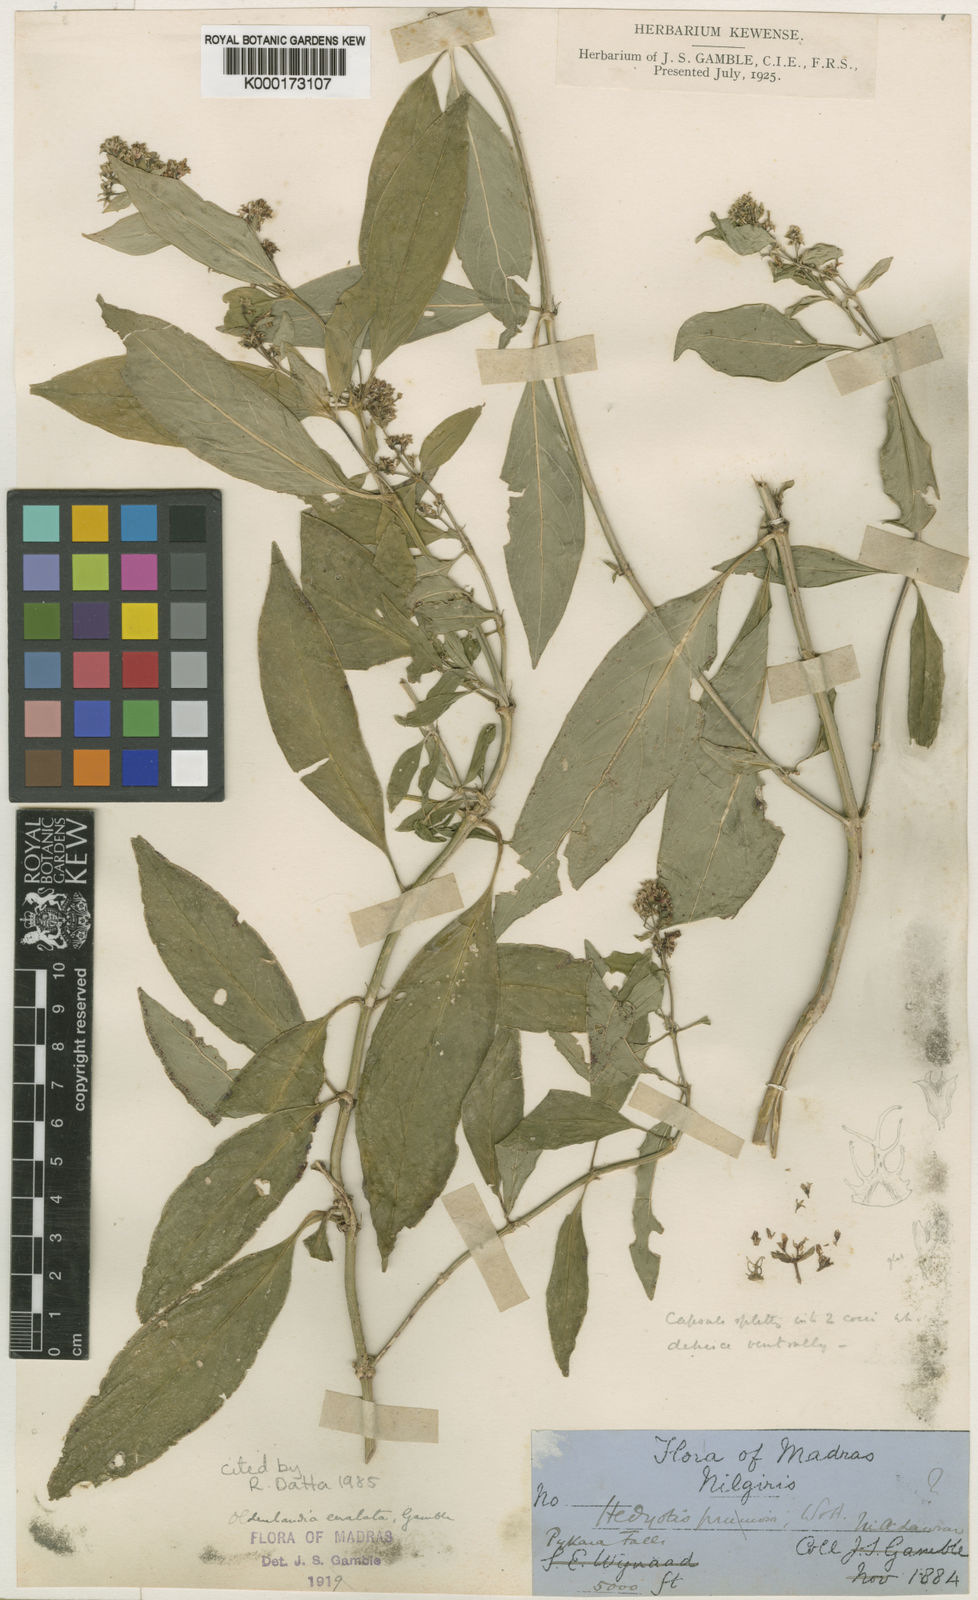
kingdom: Plantae
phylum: Tracheophyta
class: Magnoliopsida
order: Gentianales
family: Rubiaceae
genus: Hedyotis
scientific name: Hedyotis eualata
